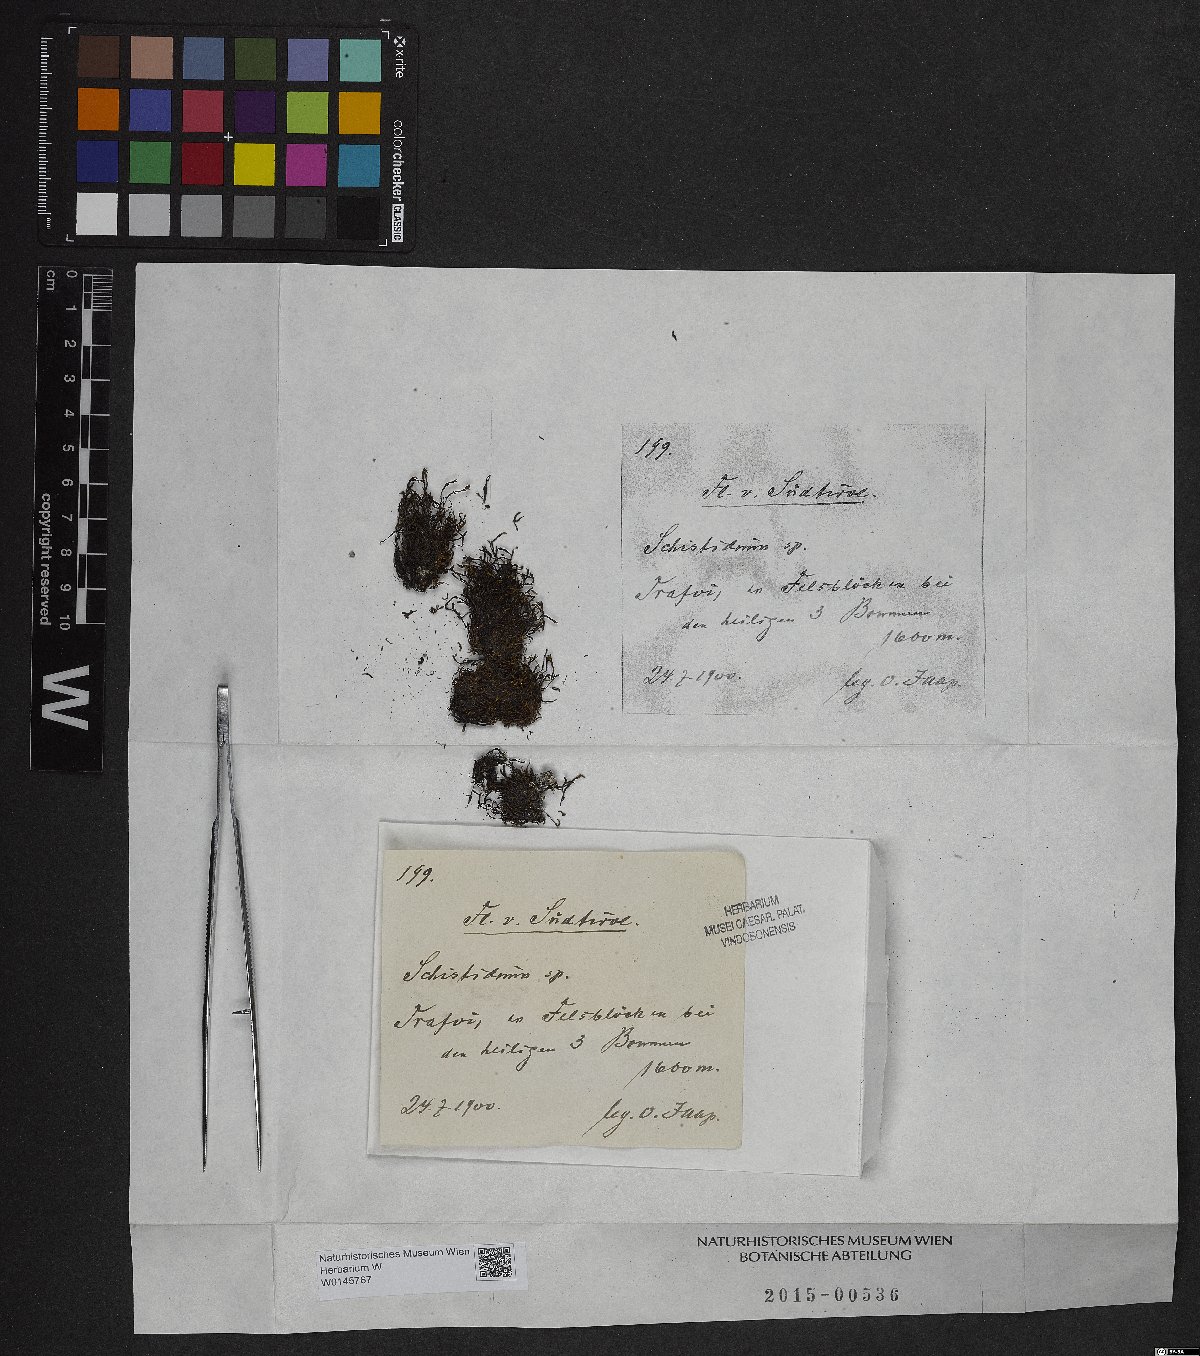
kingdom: Plantae
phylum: Bryophyta
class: Bryopsida
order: Grimmiales
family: Grimmiaceae
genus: Schistidium
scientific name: Schistidium
